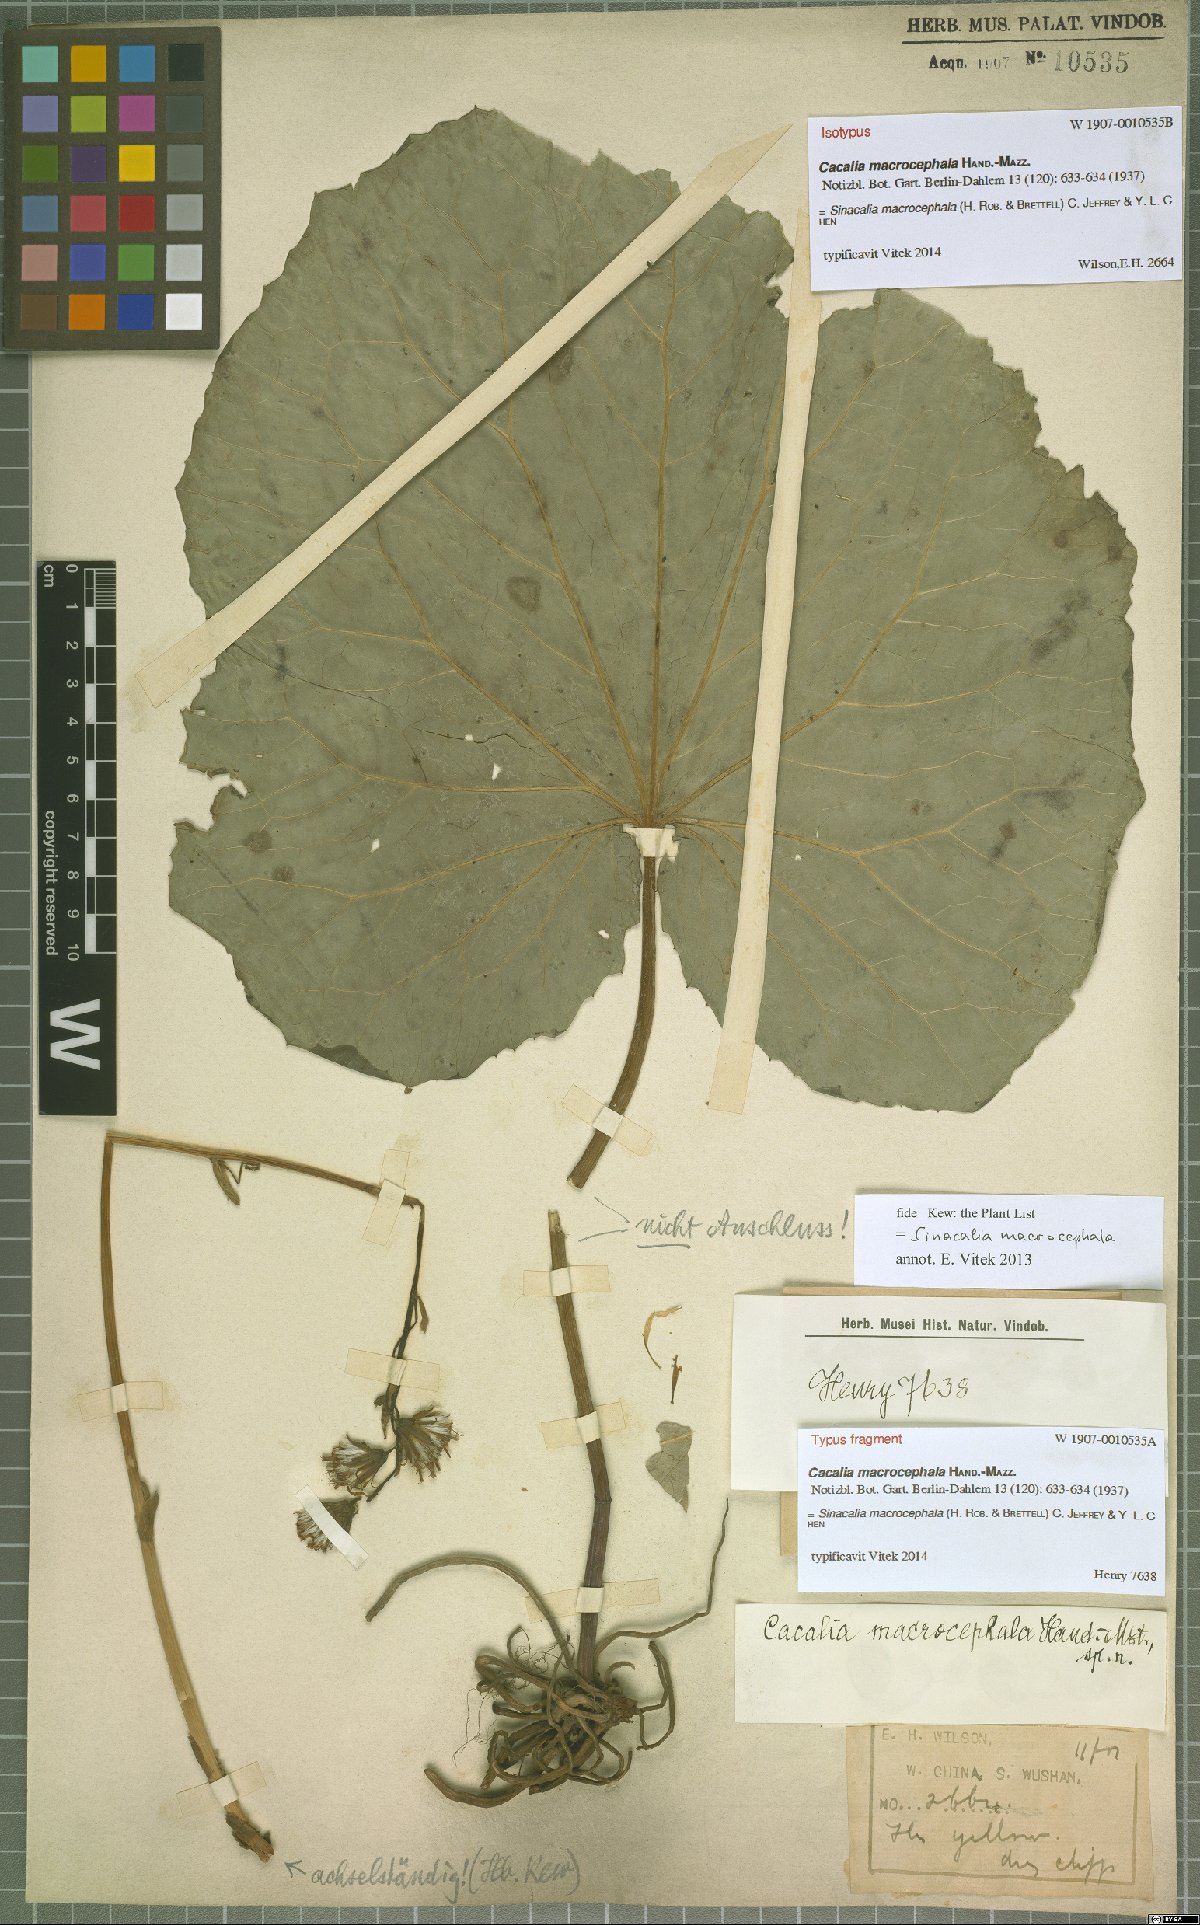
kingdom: Plantae
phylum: Tracheophyta
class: Magnoliopsida
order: Asterales
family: Asteraceae
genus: Sinacalia
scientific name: Sinacalia macrocephala
